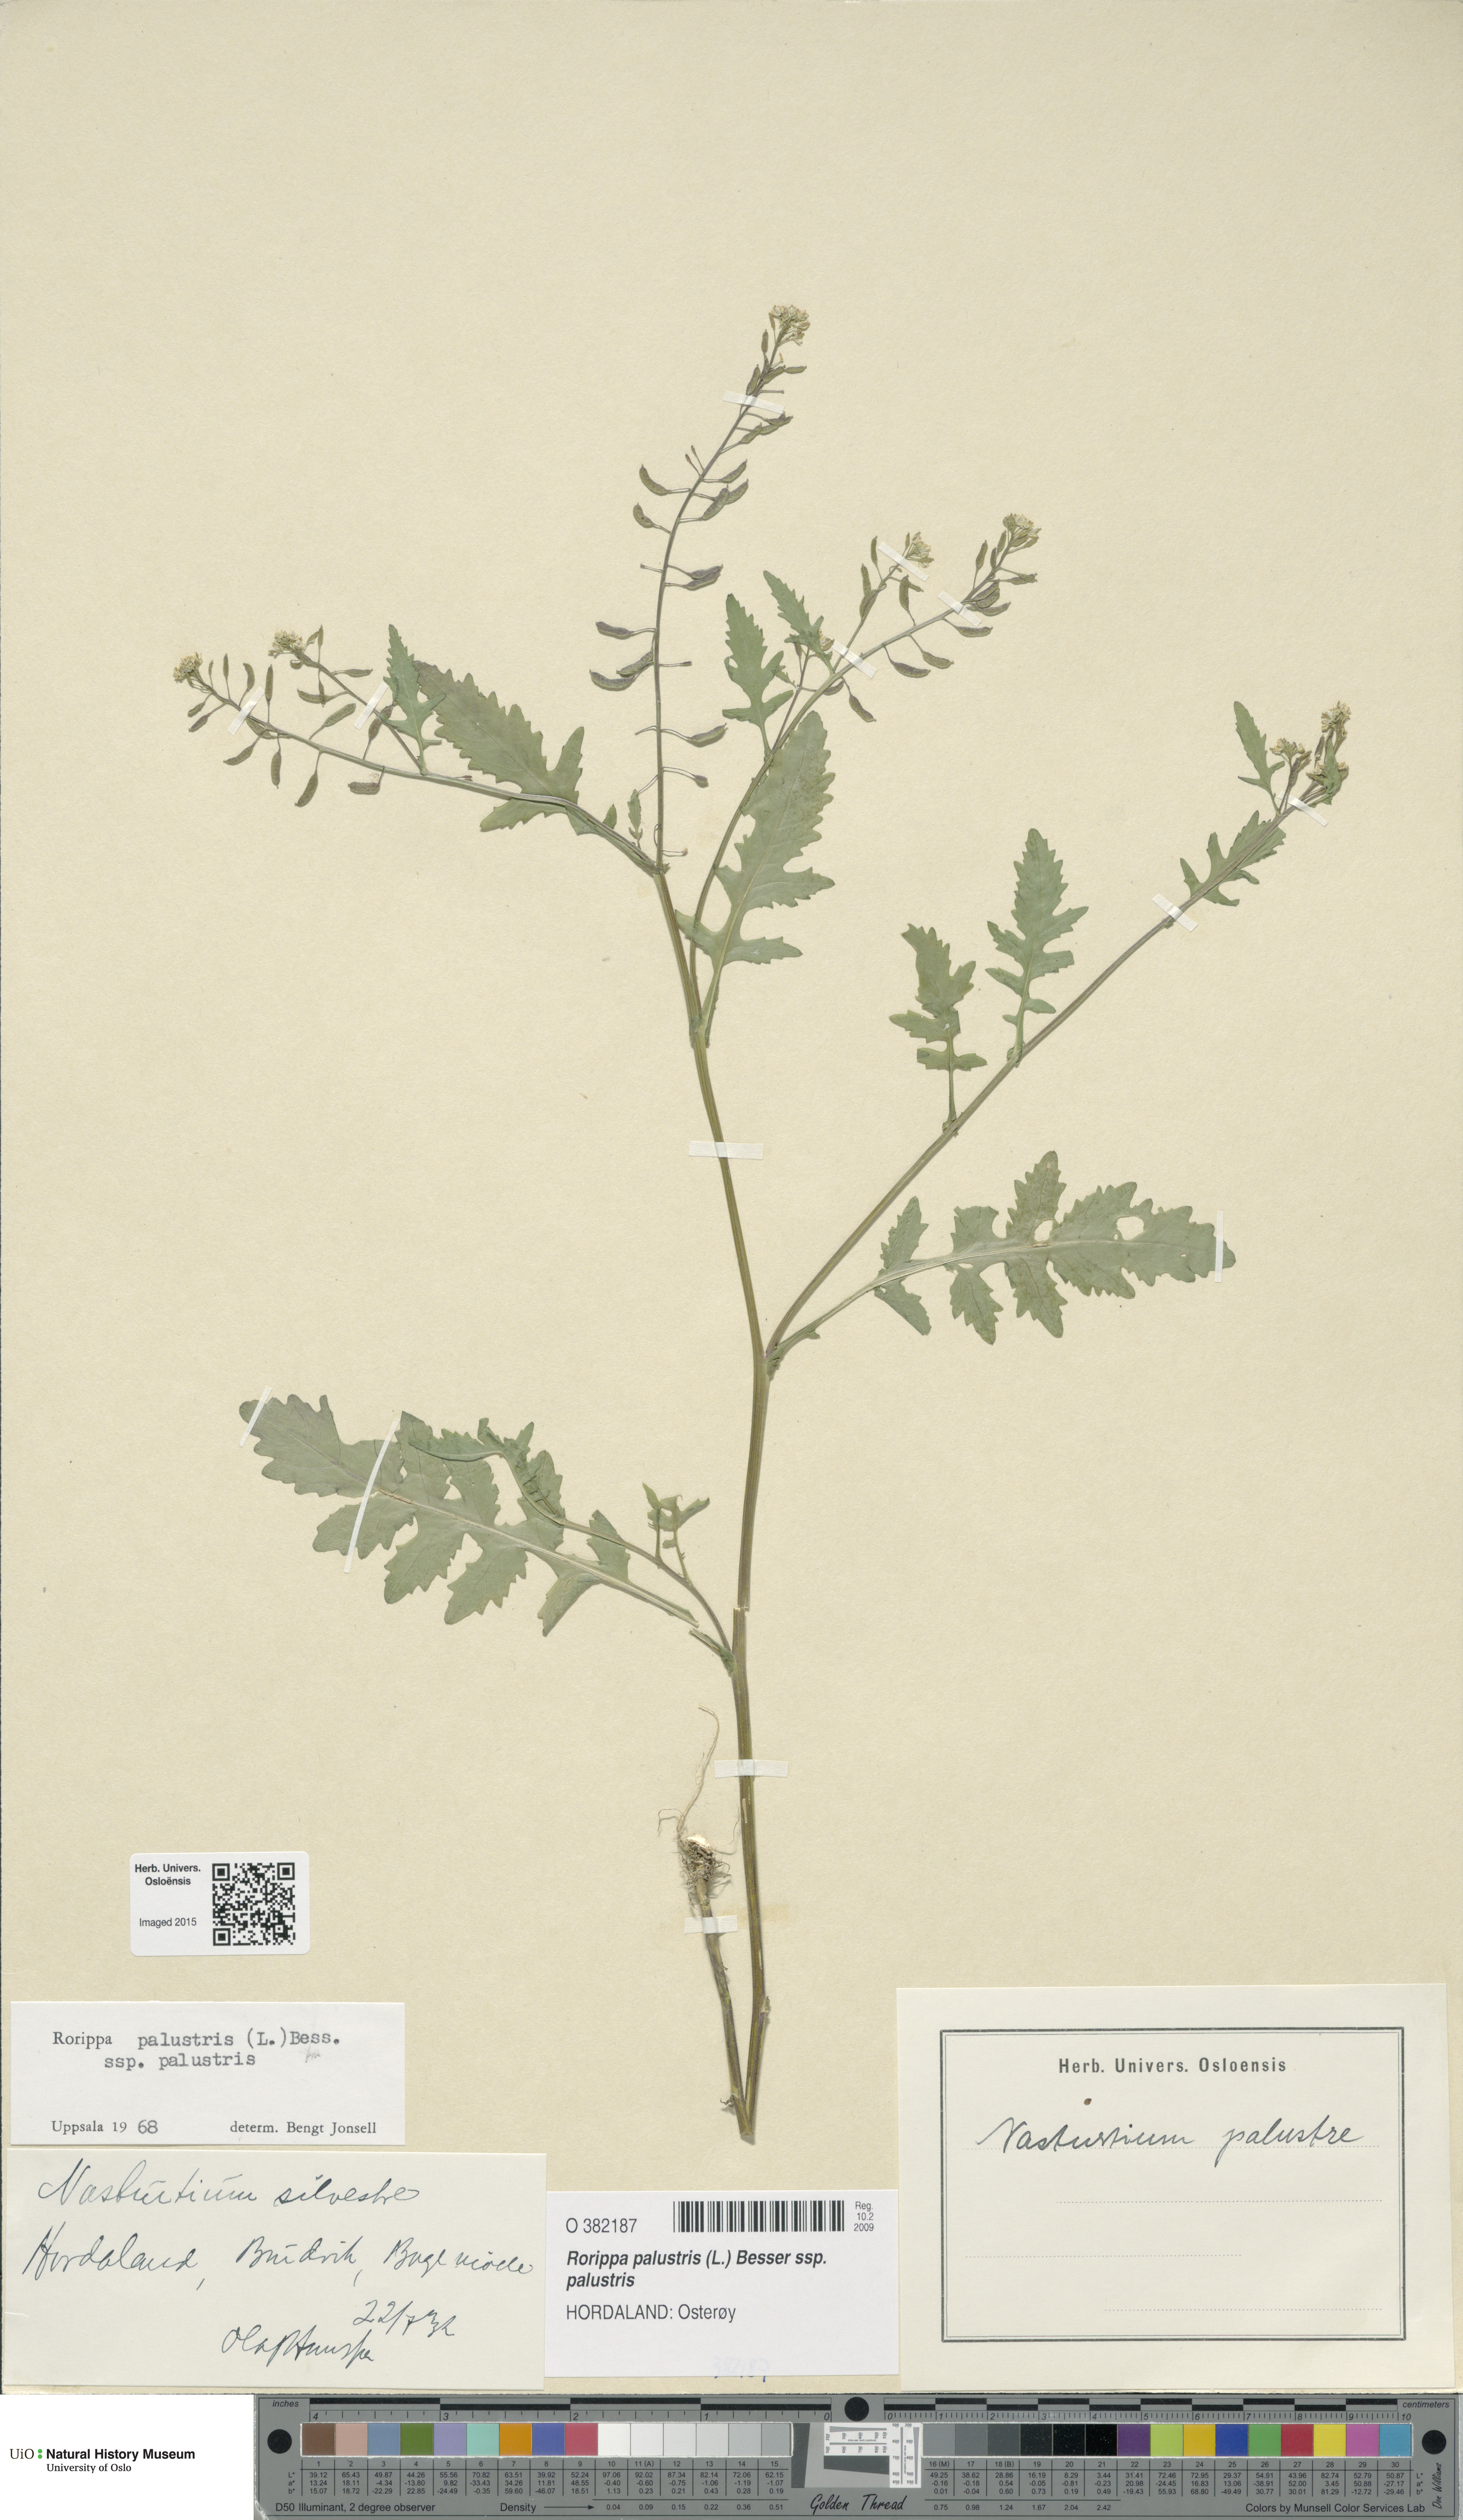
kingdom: Plantae
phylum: Tracheophyta
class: Magnoliopsida
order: Brassicales
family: Brassicaceae
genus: Rorippa
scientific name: Rorippa palustris
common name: Marsh yellow-cress
